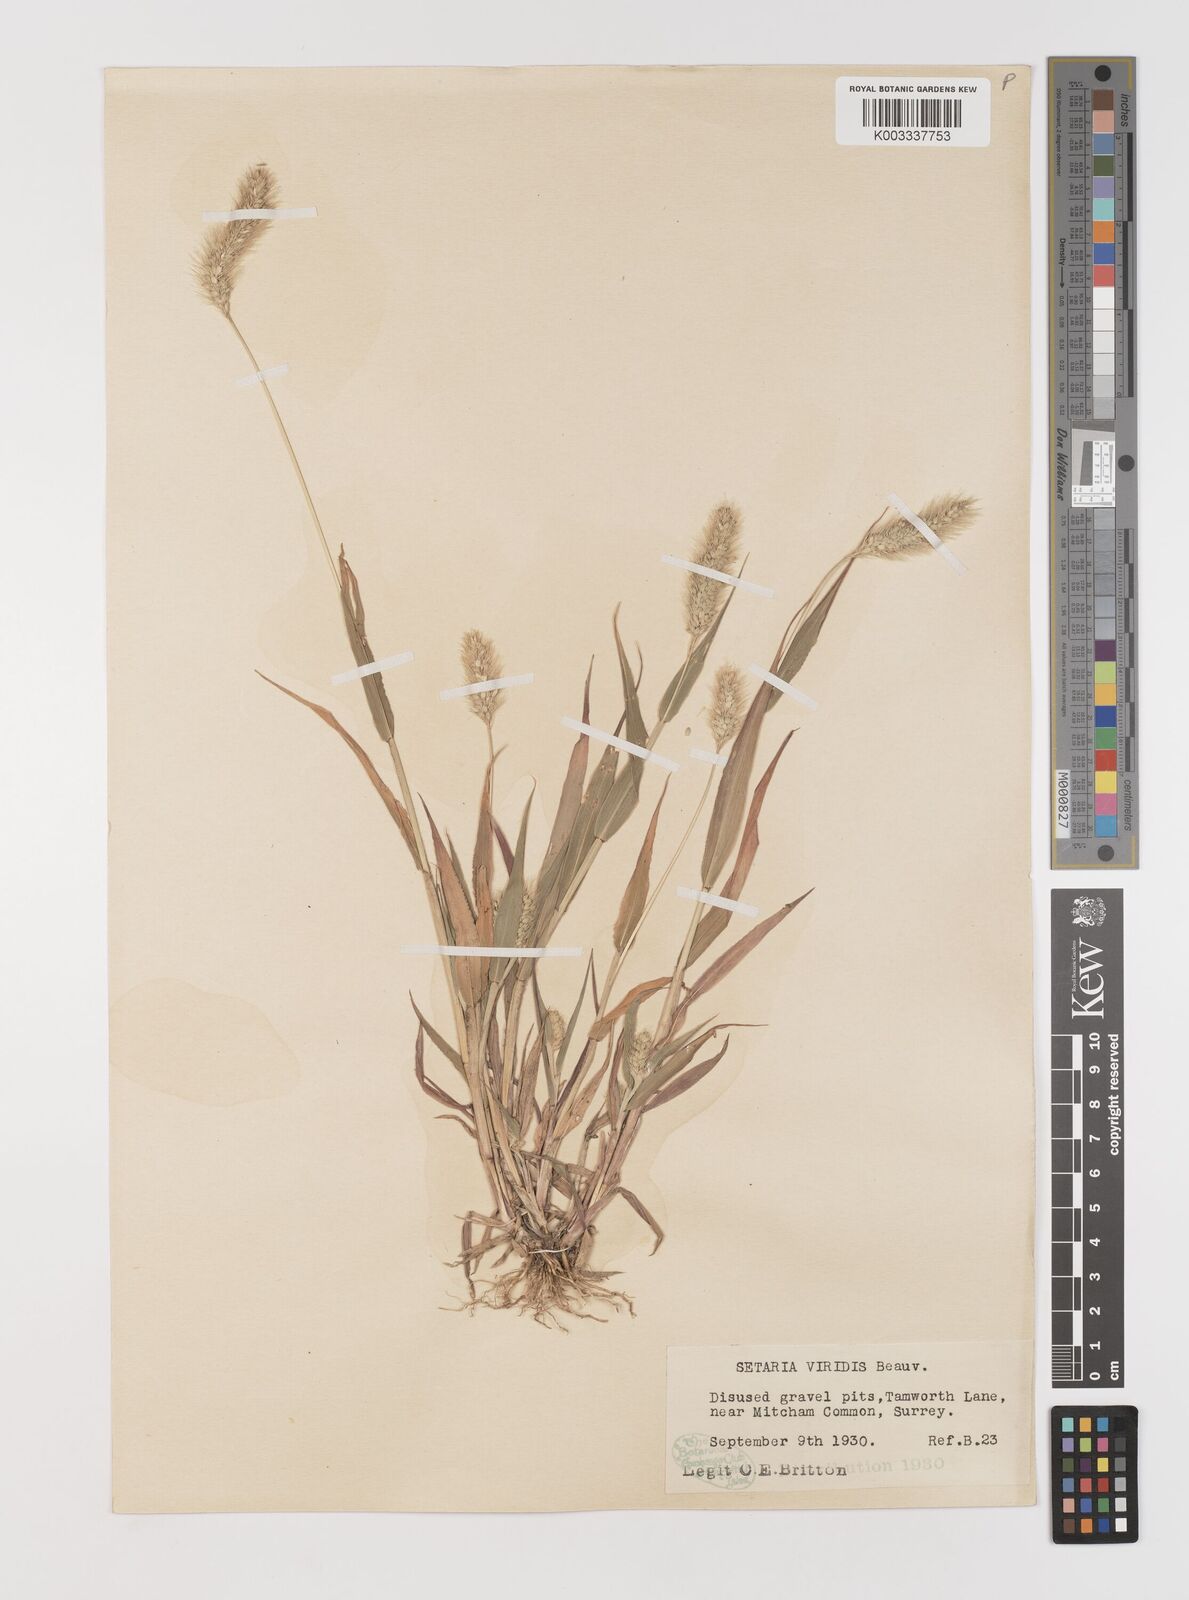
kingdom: Plantae
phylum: Tracheophyta
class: Liliopsida
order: Poales
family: Poaceae
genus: Setaria
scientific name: Setaria viridis
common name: Green bristlegrass
